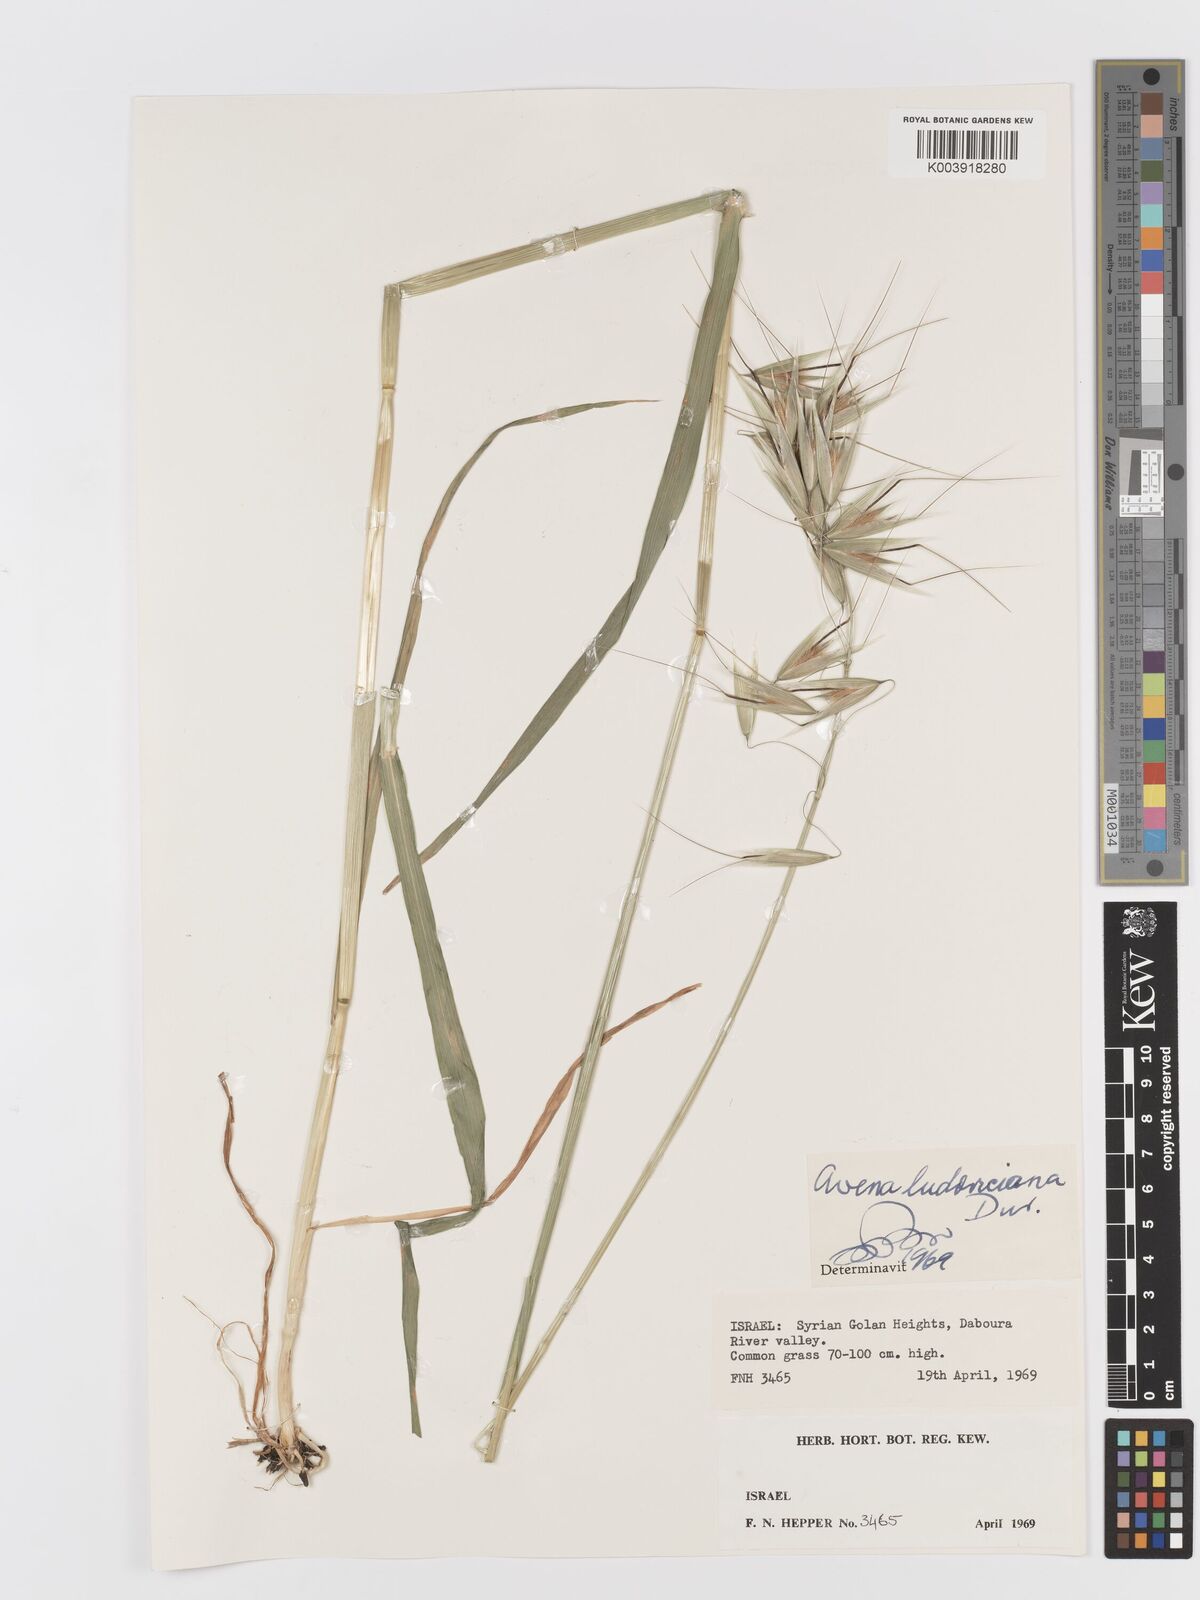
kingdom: Plantae
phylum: Tracheophyta
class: Liliopsida
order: Poales
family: Poaceae
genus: Avena
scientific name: Avena sterilis
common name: Animated oat
